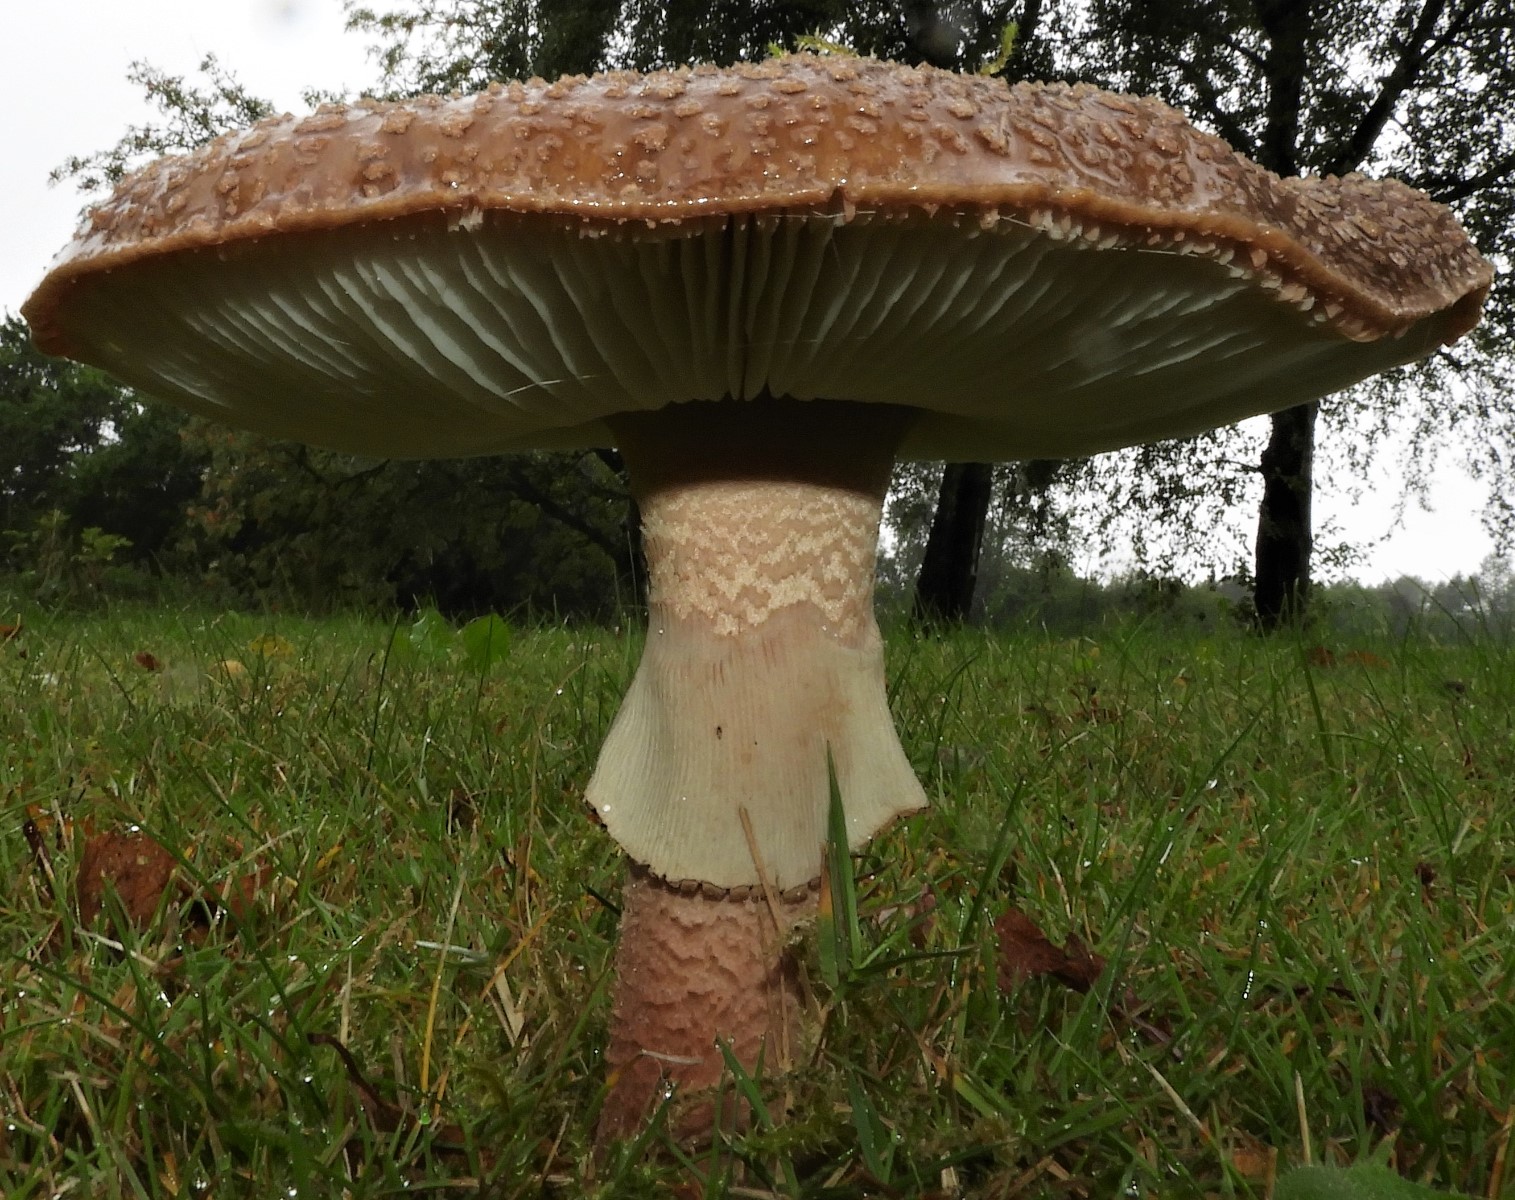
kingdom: Fungi
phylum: Basidiomycota
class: Agaricomycetes
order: Agaricales
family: Amanitaceae
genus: Amanita
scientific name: Amanita rubescens
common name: rødmende fluesvamp
